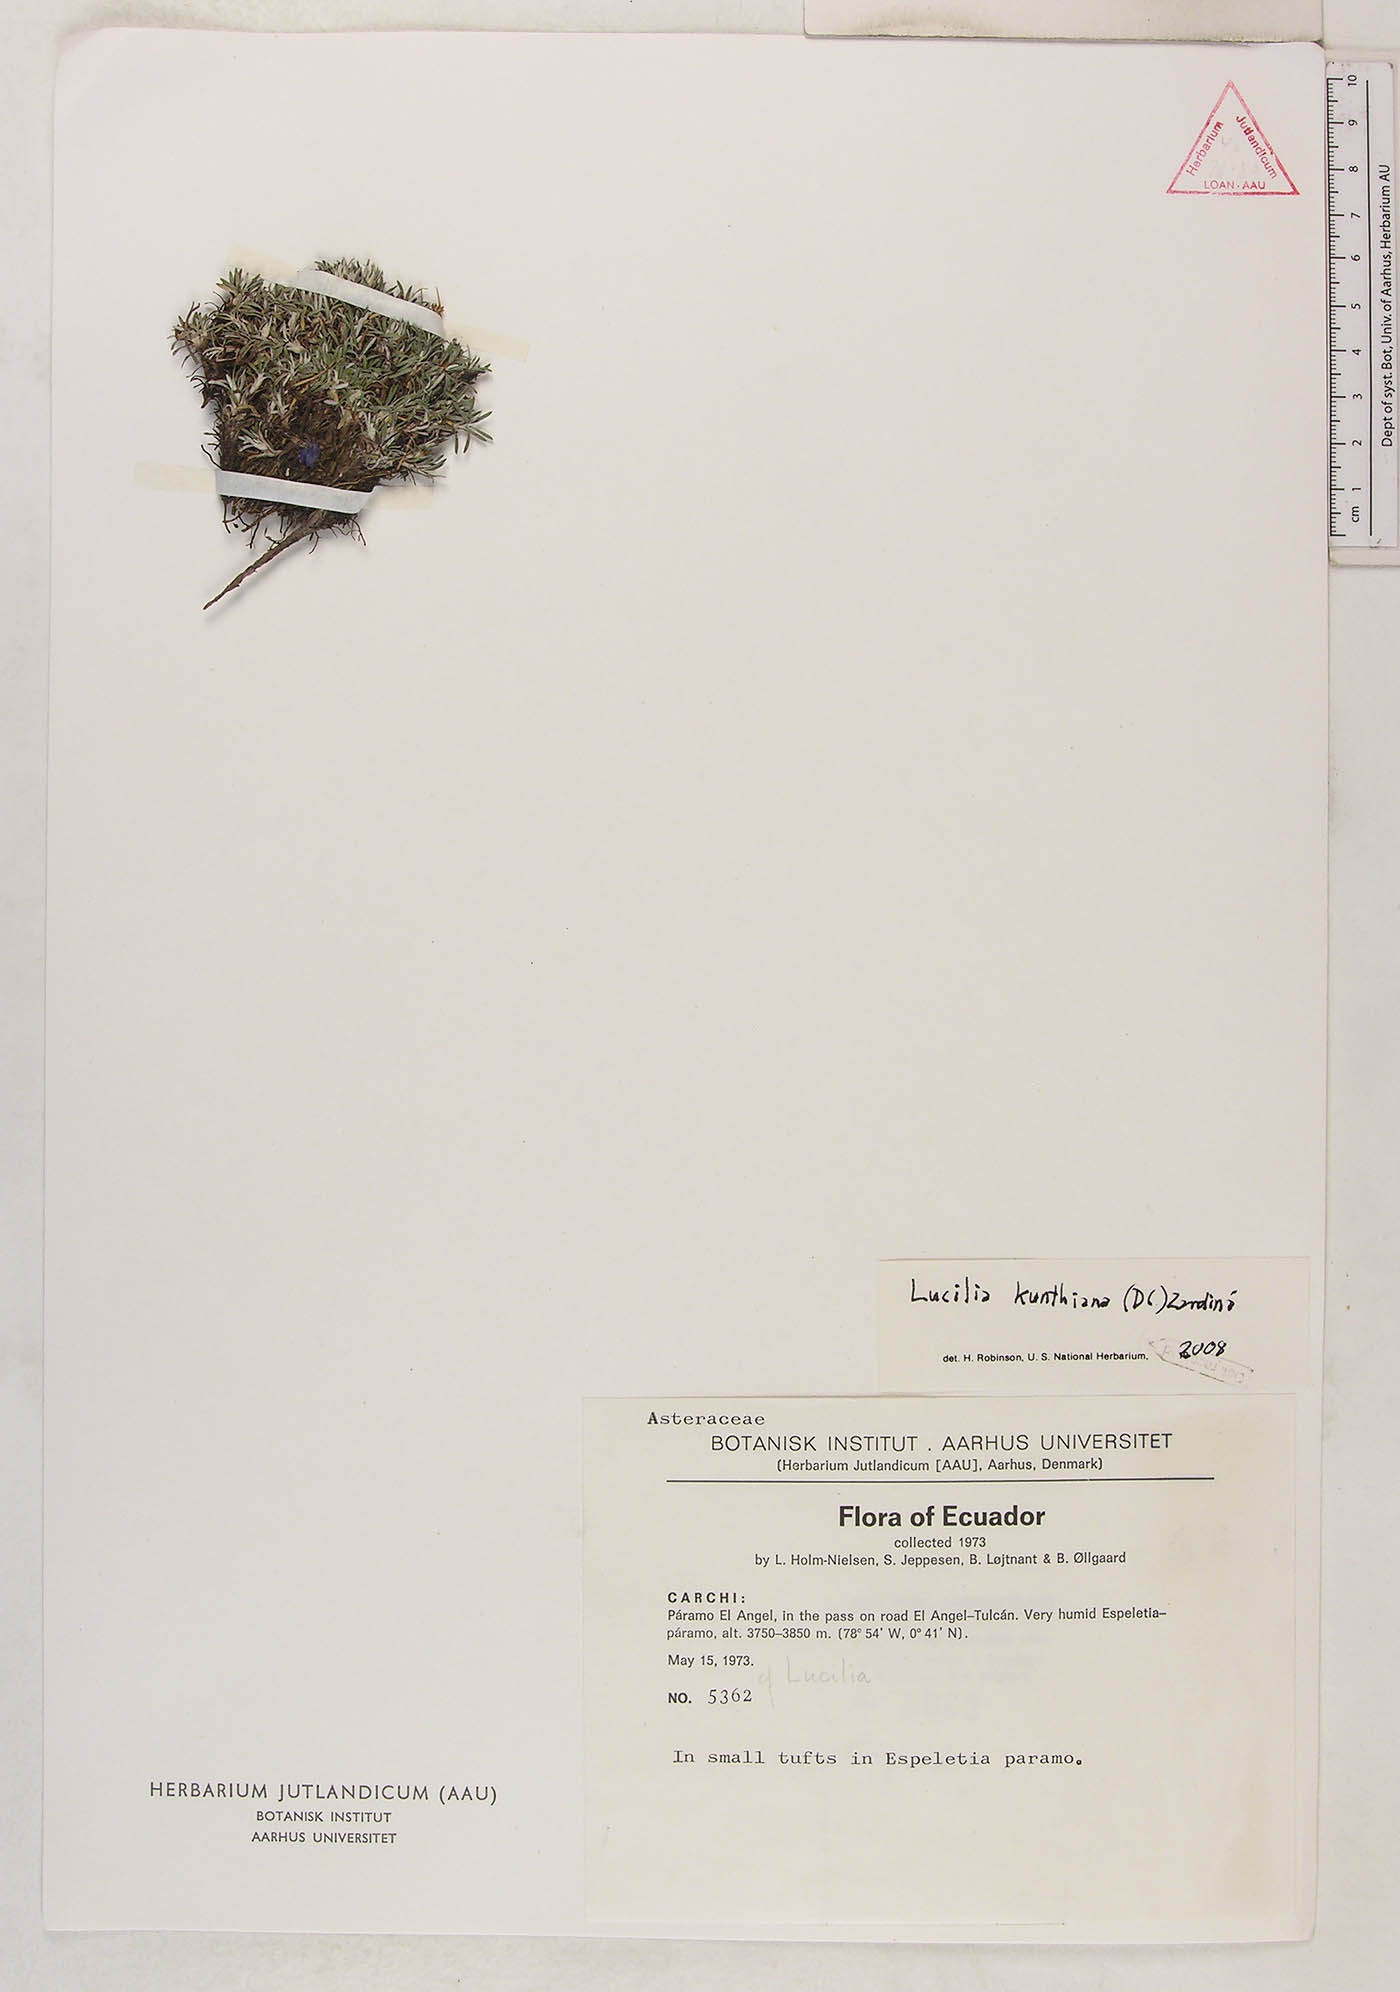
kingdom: Plantae
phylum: Tracheophyta
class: Magnoliopsida
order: Asterales
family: Asteraceae
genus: Jalcophila
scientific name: Jalcophila ecuadorensis
